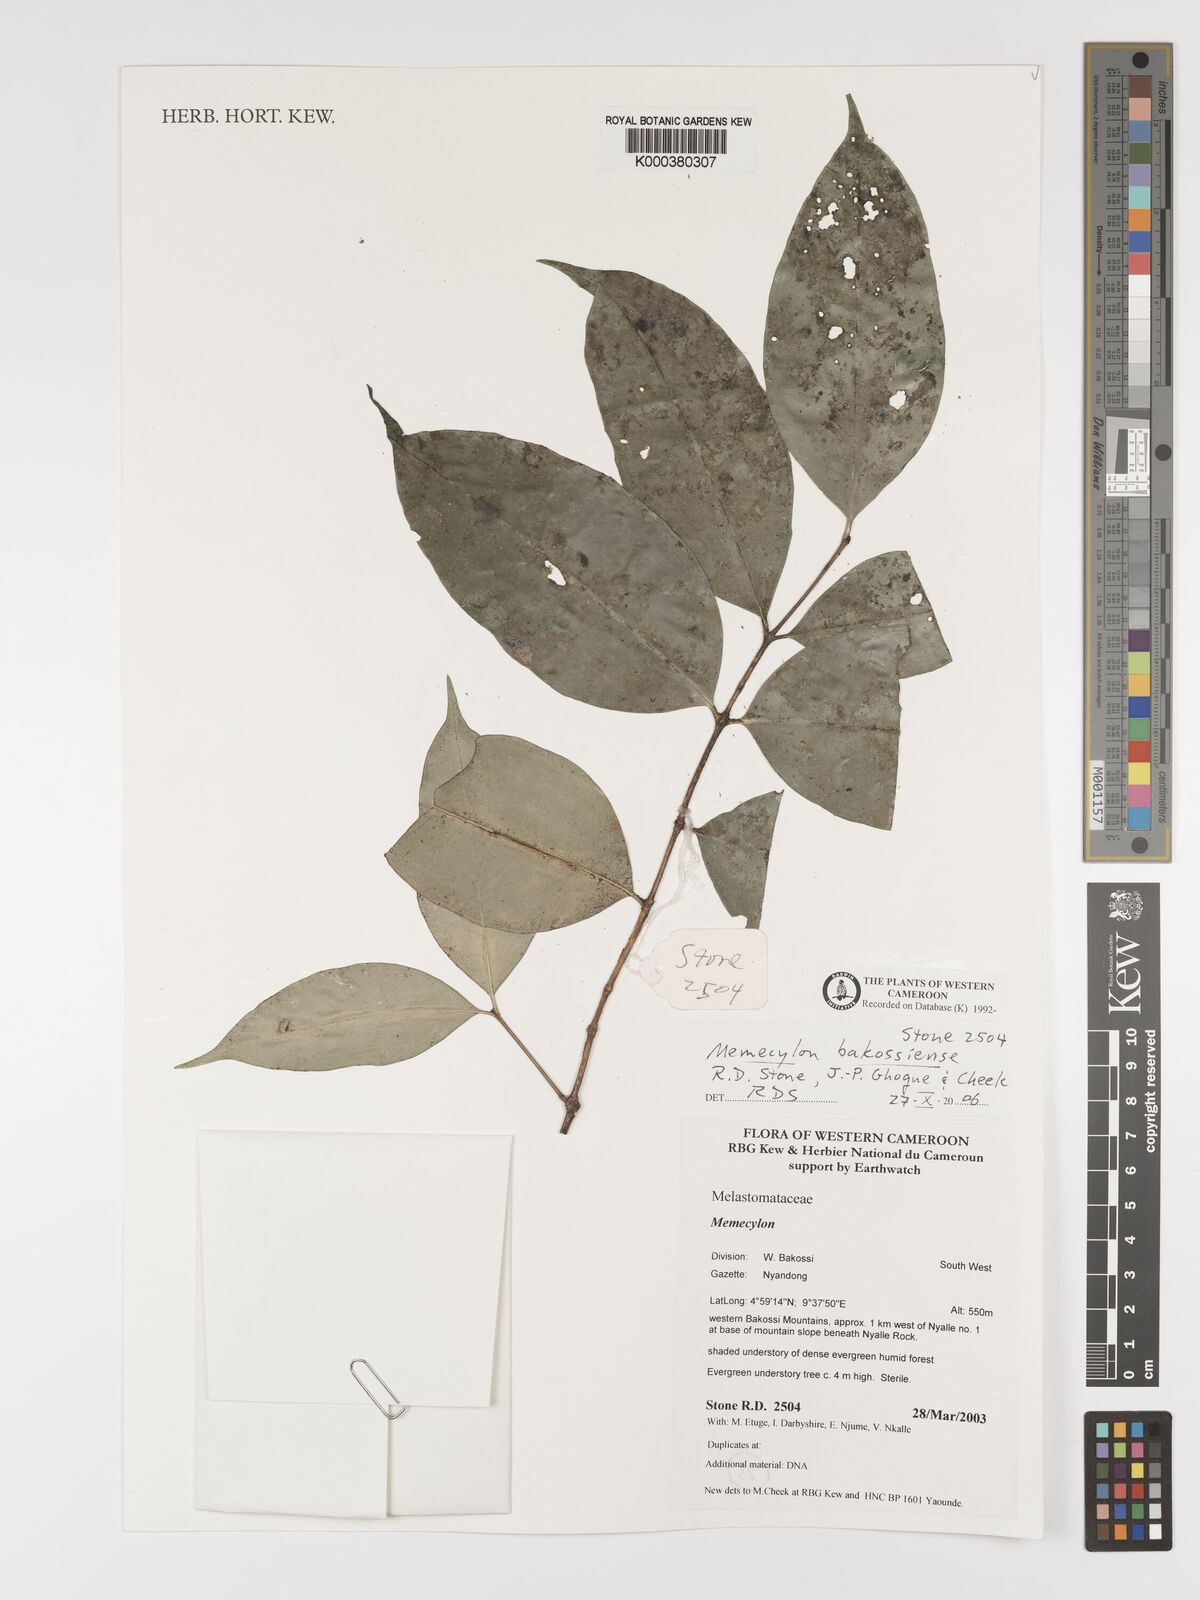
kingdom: Plantae
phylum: Tracheophyta
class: Magnoliopsida
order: Myrtales
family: Melastomataceae
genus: Memecylon
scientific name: Memecylon
